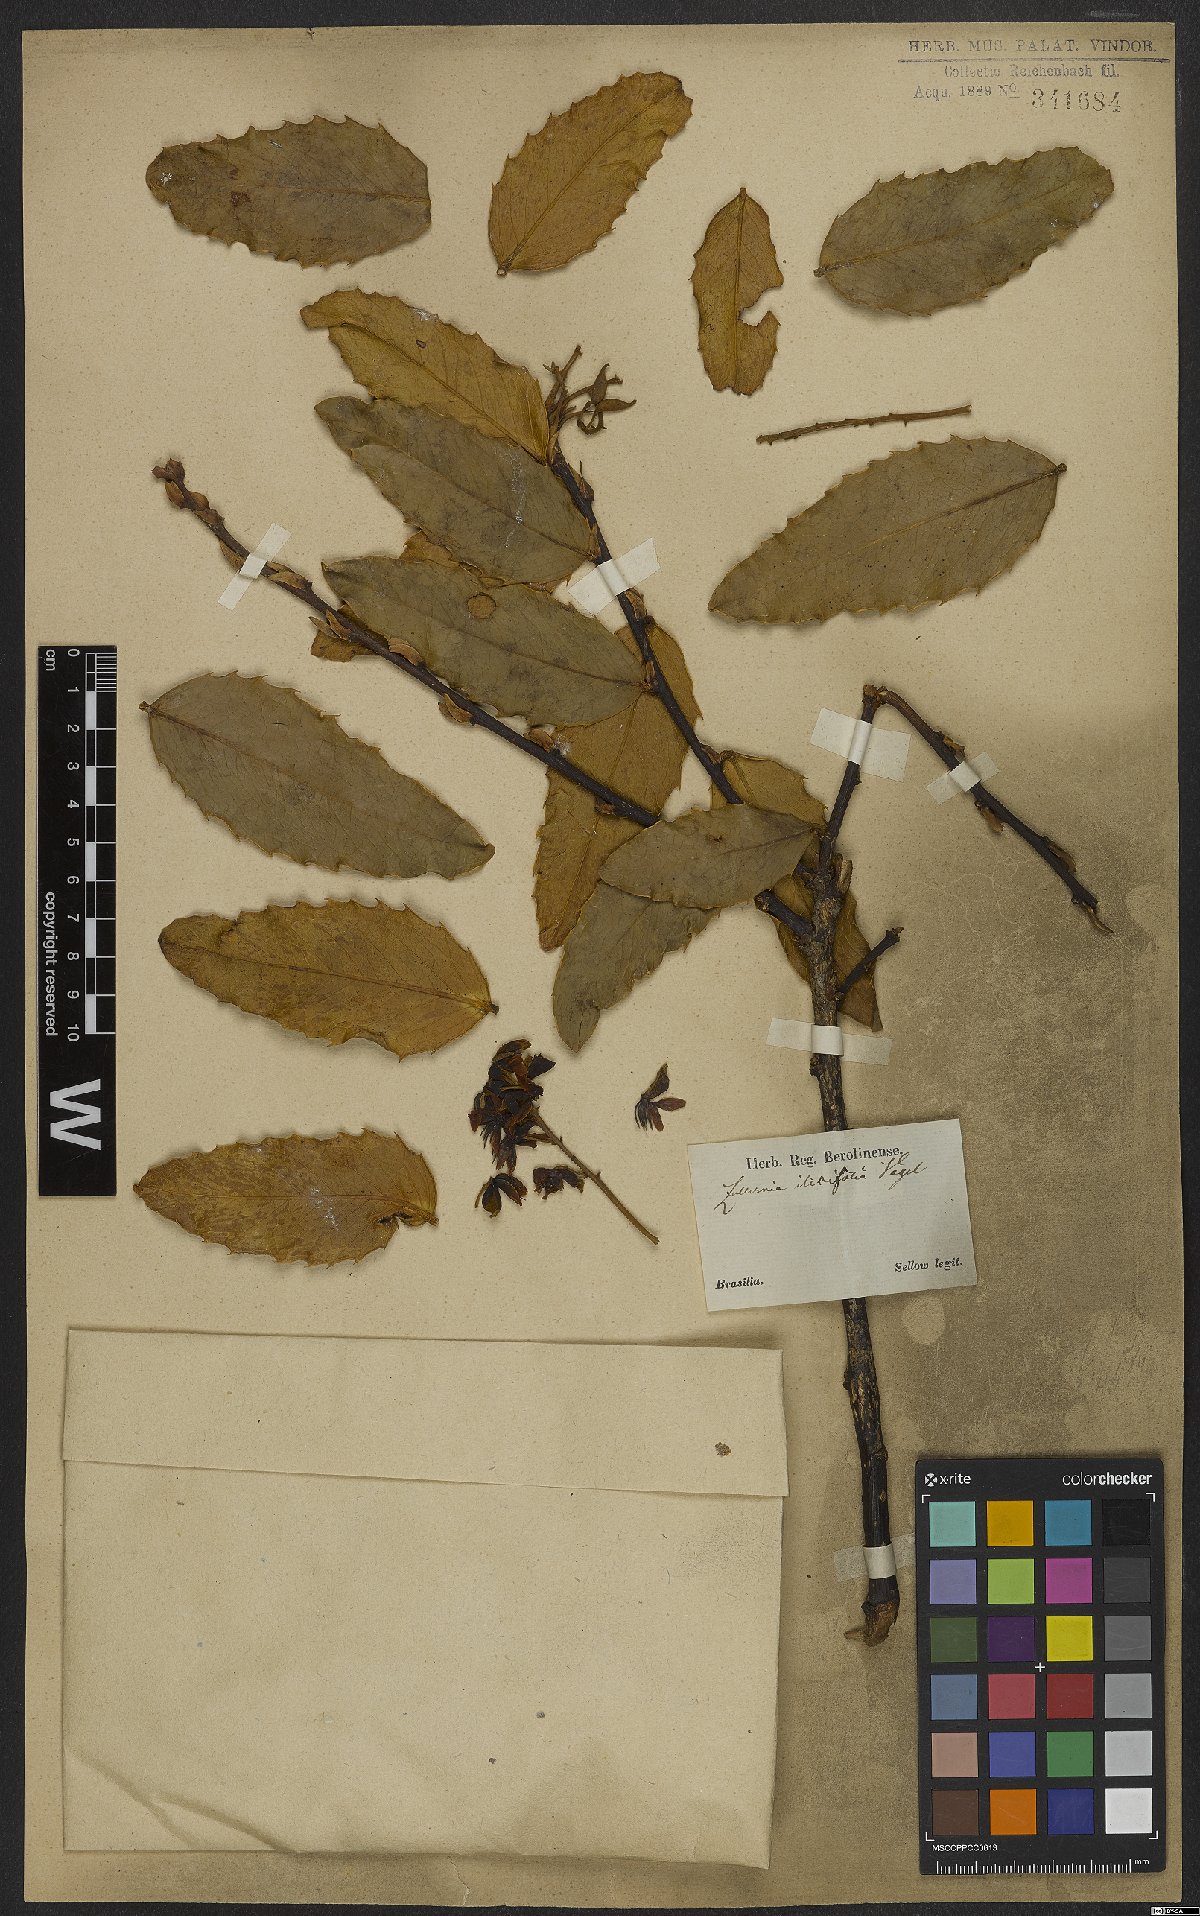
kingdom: Plantae
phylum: Tracheophyta
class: Magnoliopsida
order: Fabales
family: Fabaceae
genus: Zollernia
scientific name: Zollernia ilicifolia
